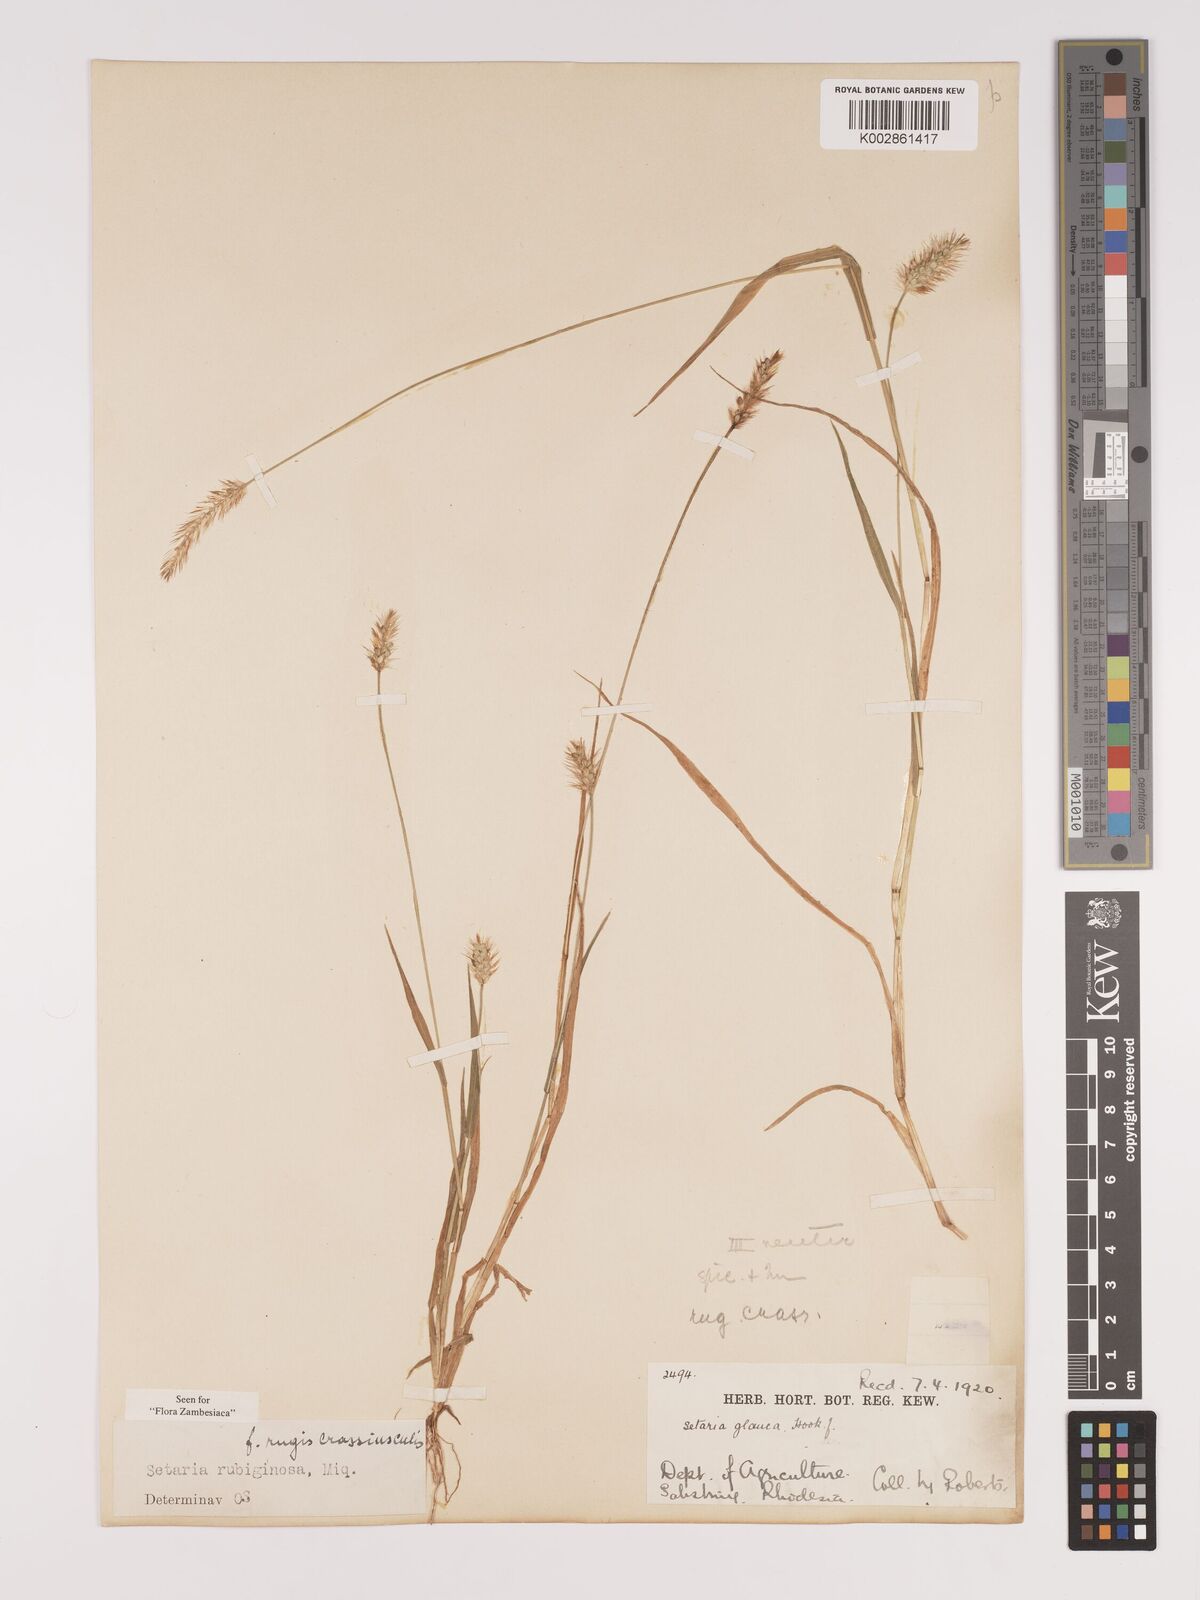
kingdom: Plantae
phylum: Tracheophyta
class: Liliopsida
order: Poales
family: Poaceae
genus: Setaria
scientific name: Setaria pumila
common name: Yellow bristle-grass
